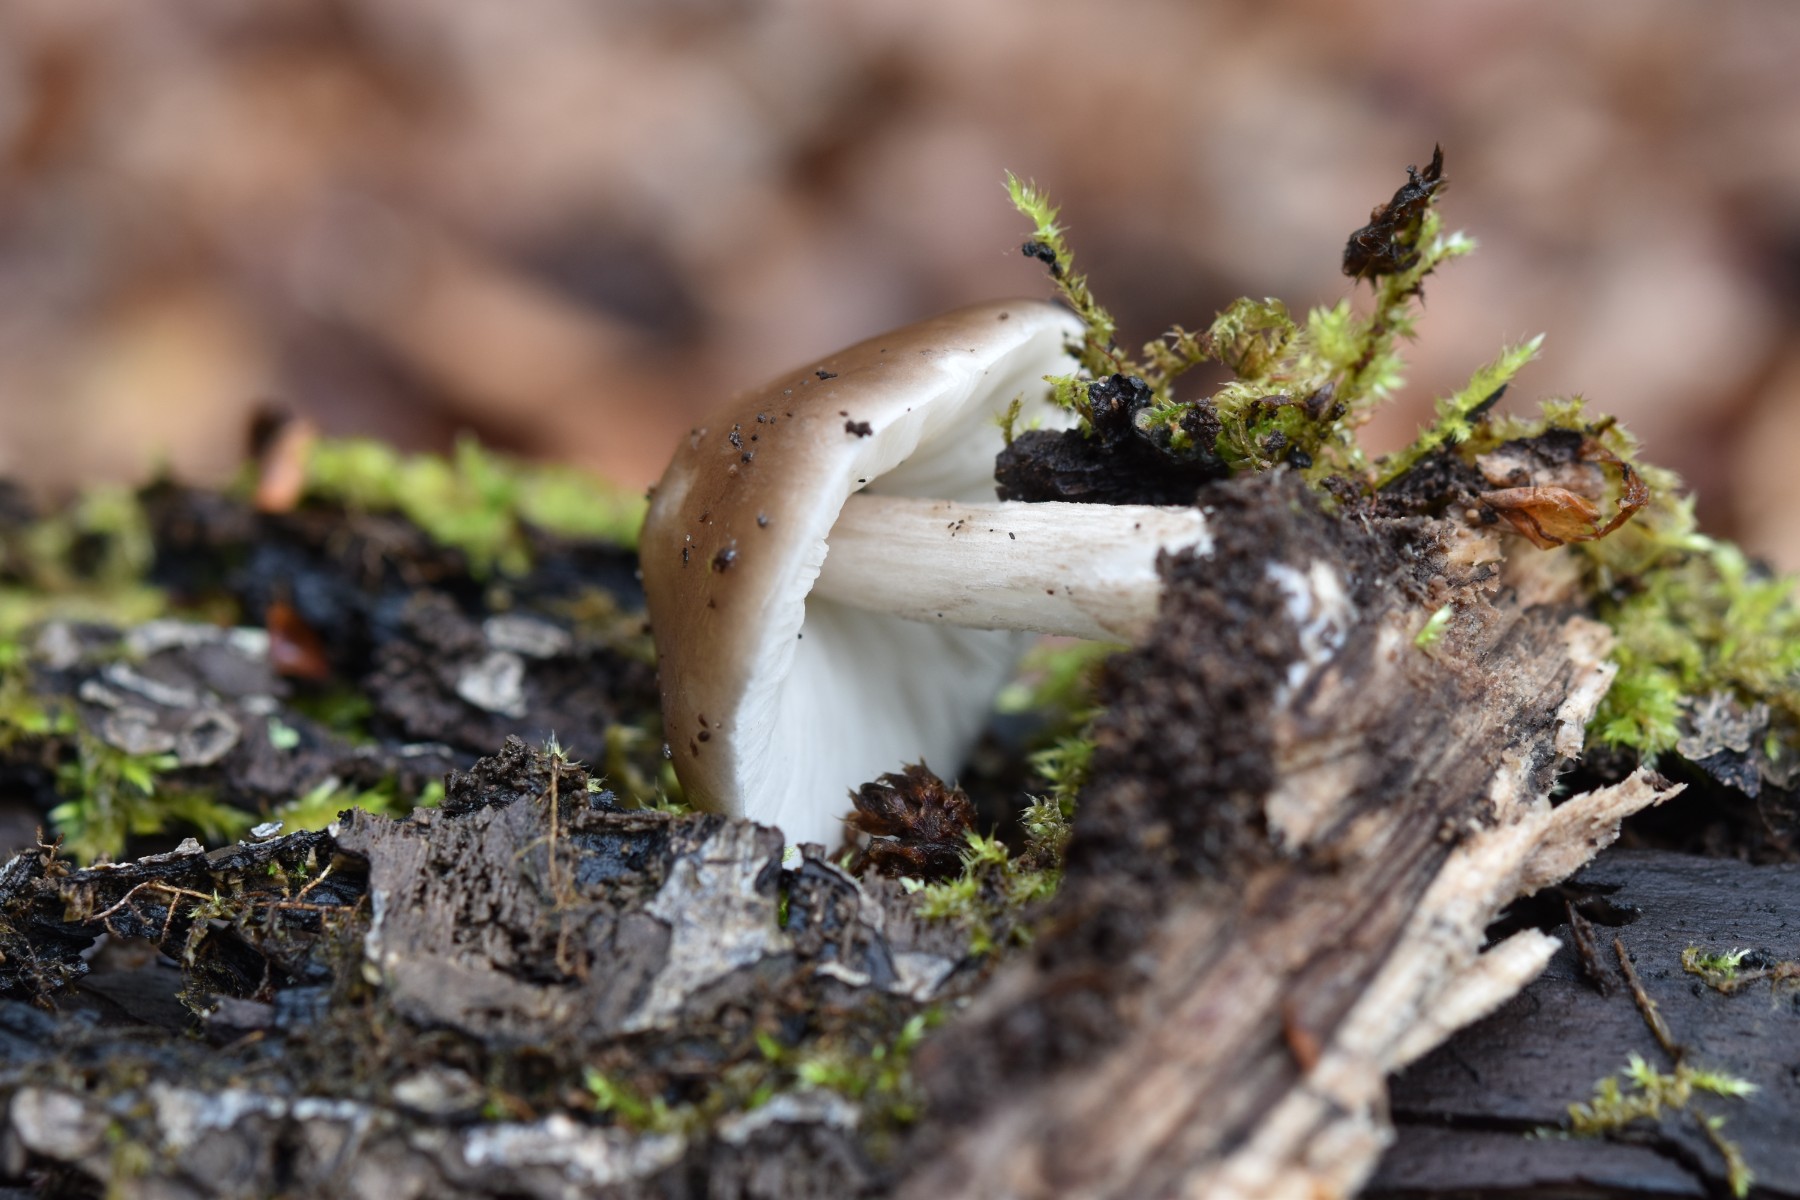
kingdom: Fungi
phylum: Basidiomycota
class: Agaricomycetes
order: Agaricales
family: Pluteaceae
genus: Pluteus
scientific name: Pluteus cervinus
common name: sodfarvet skærmhat
